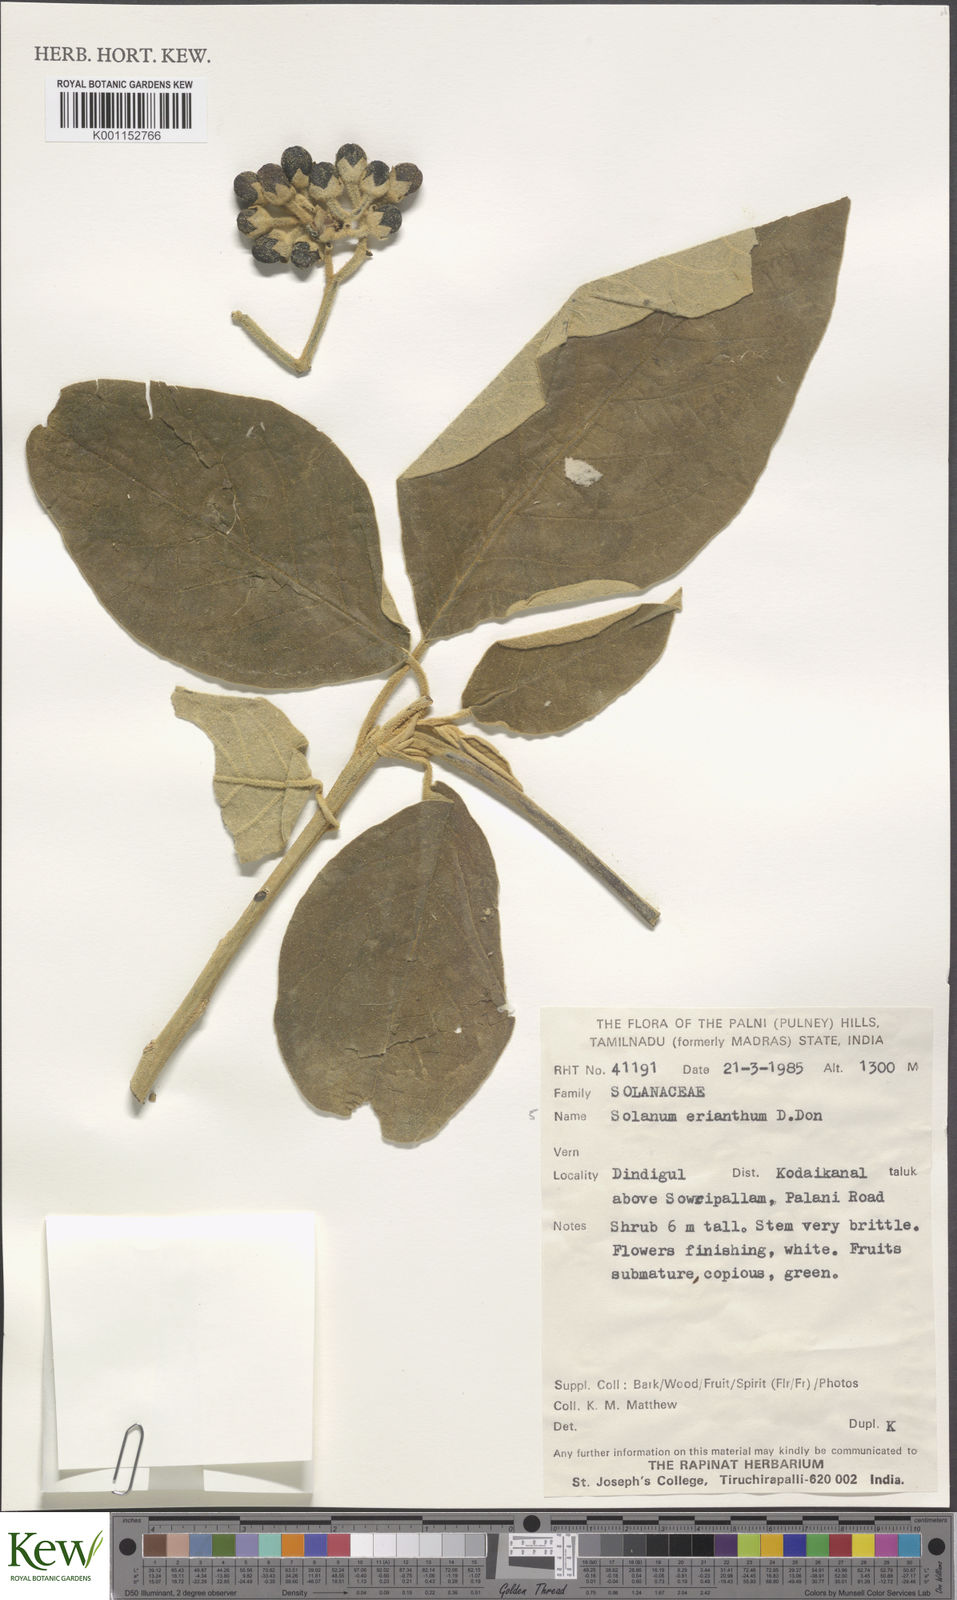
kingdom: Plantae
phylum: Tracheophyta
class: Magnoliopsida
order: Solanales
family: Solanaceae
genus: Solanum
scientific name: Solanum erianthum
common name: Tobacco-tree
